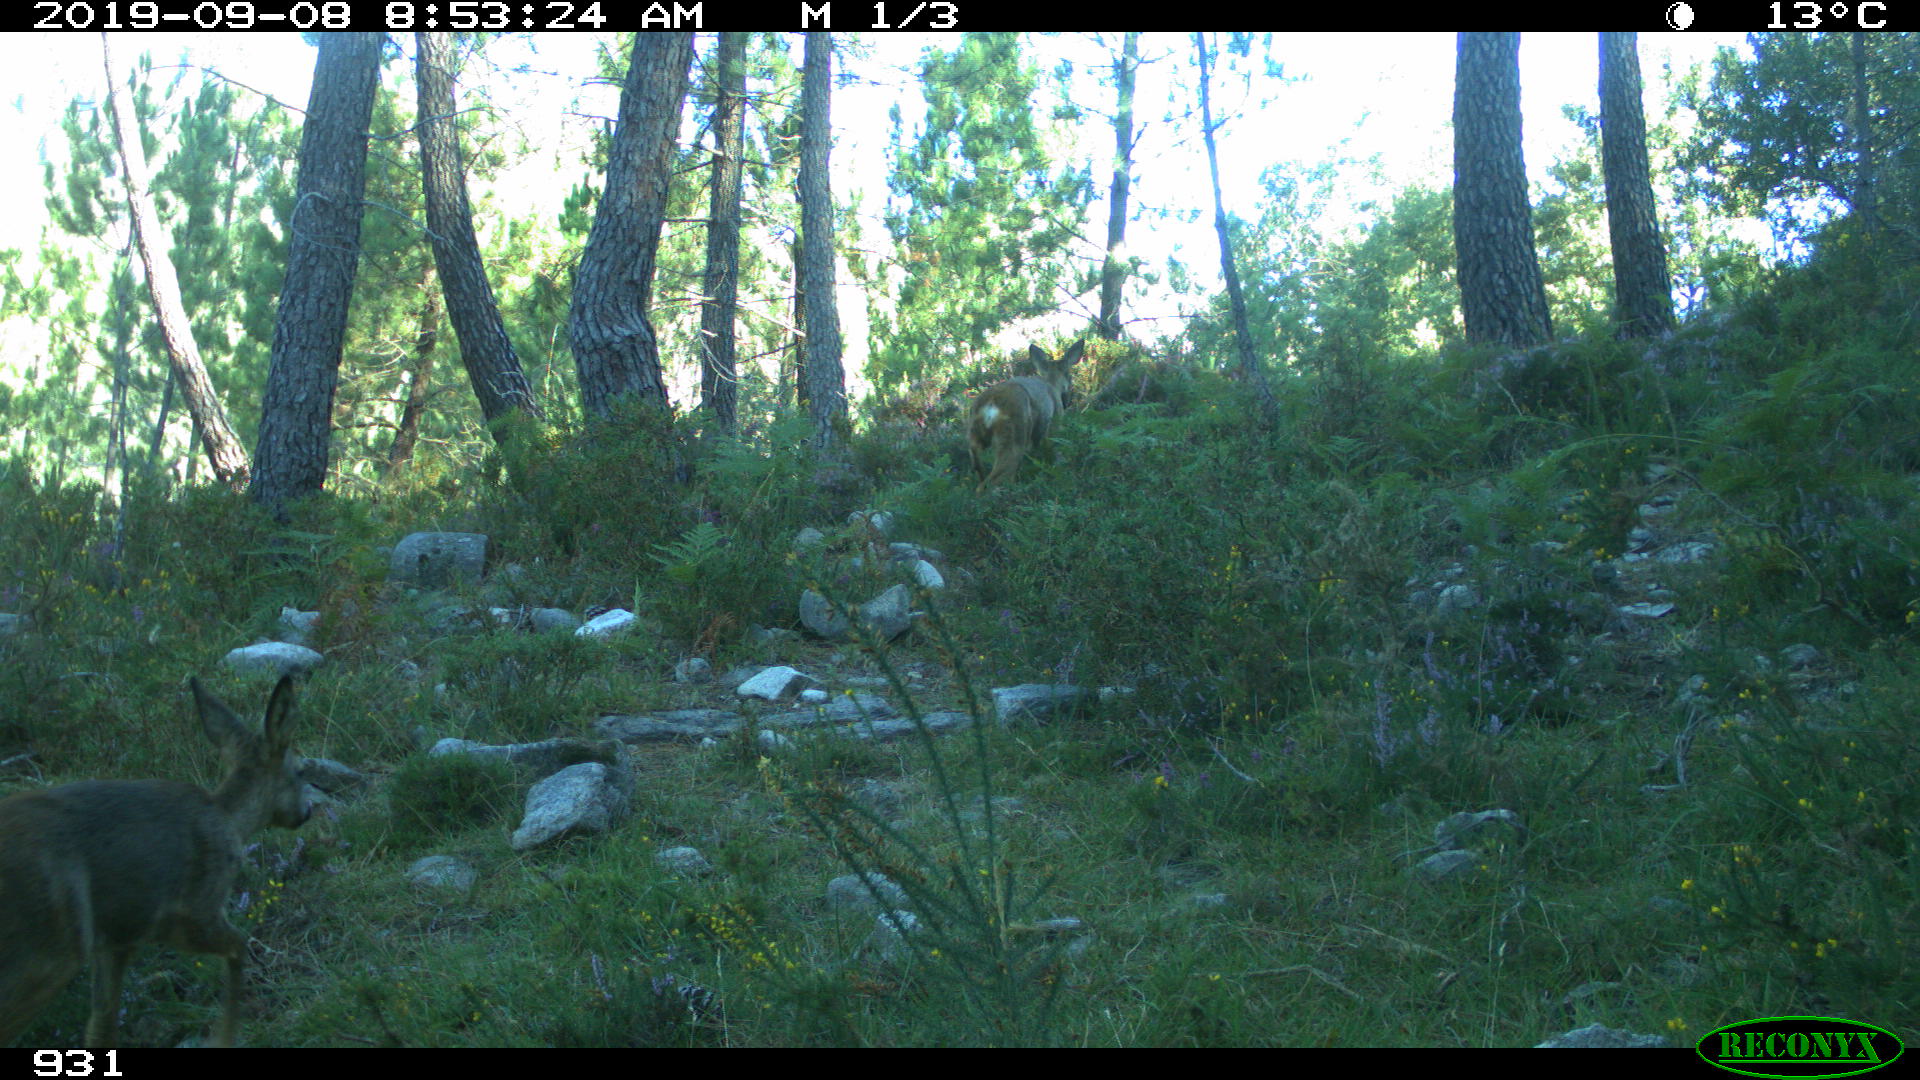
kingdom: Animalia
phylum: Chordata
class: Mammalia
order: Artiodactyla
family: Cervidae
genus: Capreolus
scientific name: Capreolus capreolus
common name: Western roe deer
